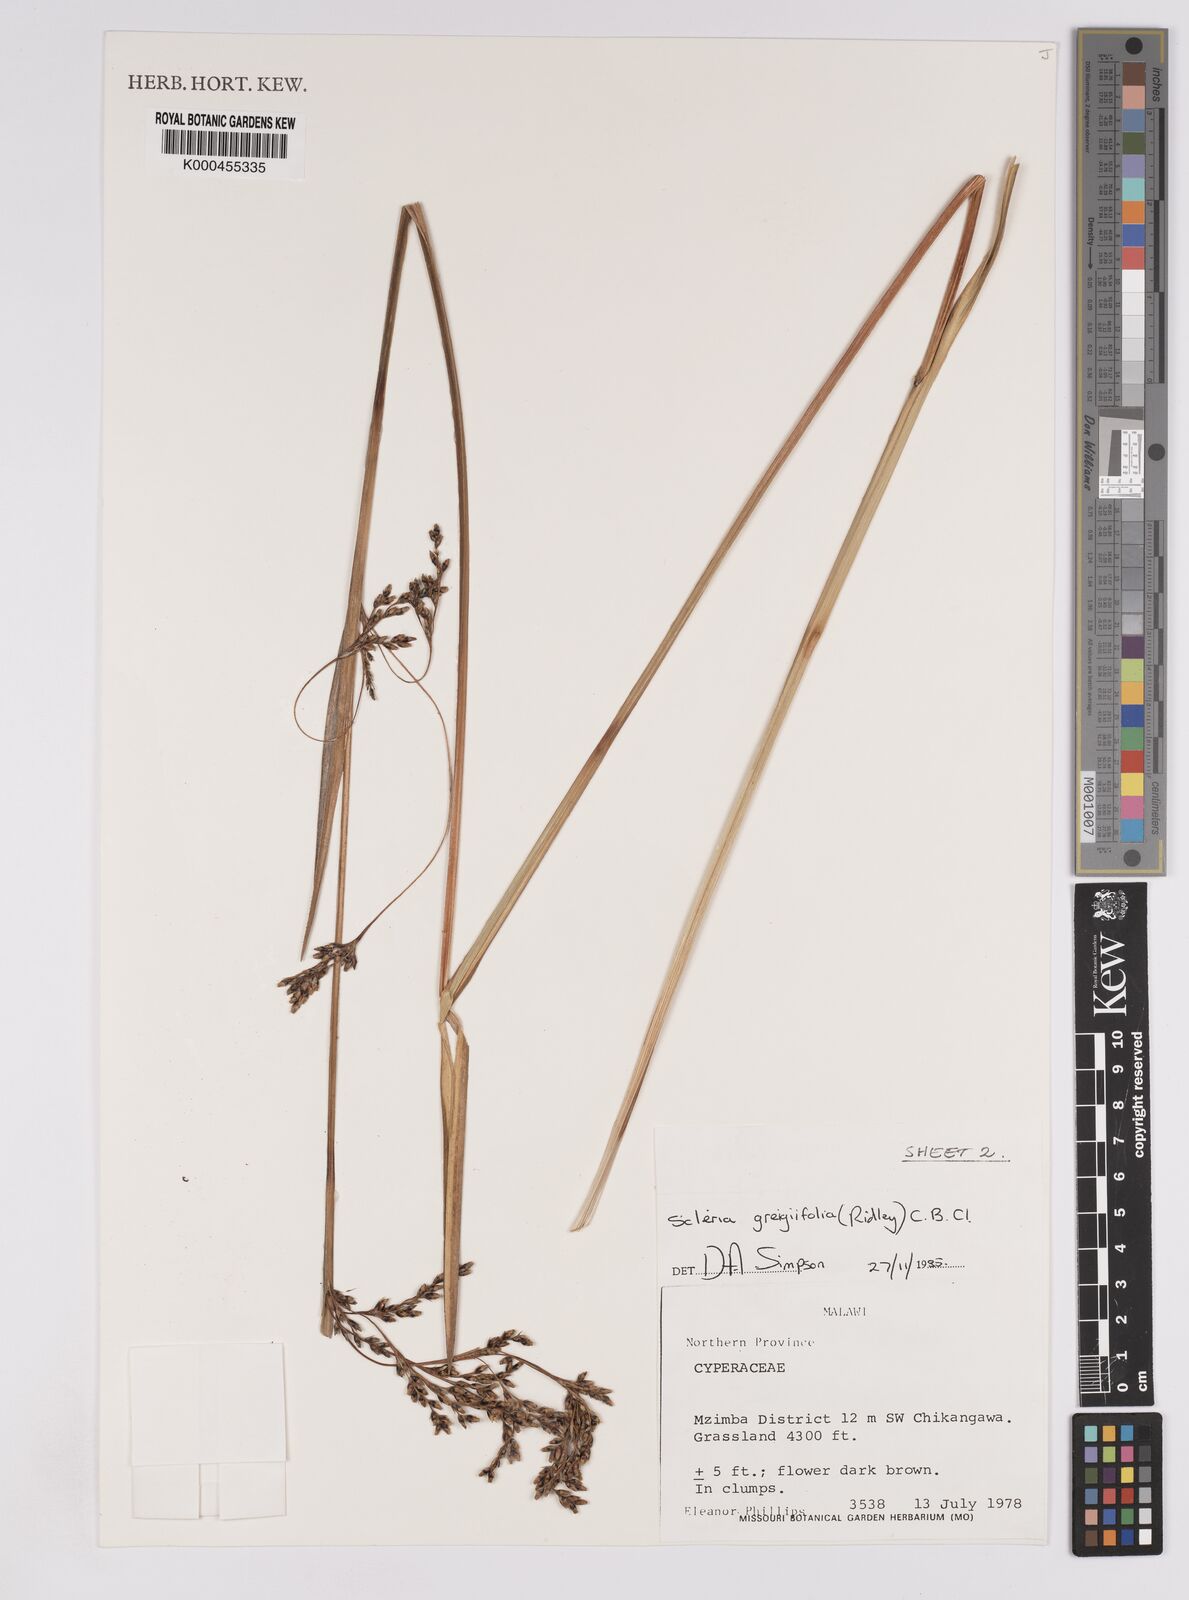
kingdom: Plantae
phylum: Tracheophyta
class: Liliopsida
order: Poales
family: Cyperaceae
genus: Scleria
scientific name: Scleria greigiifolia
